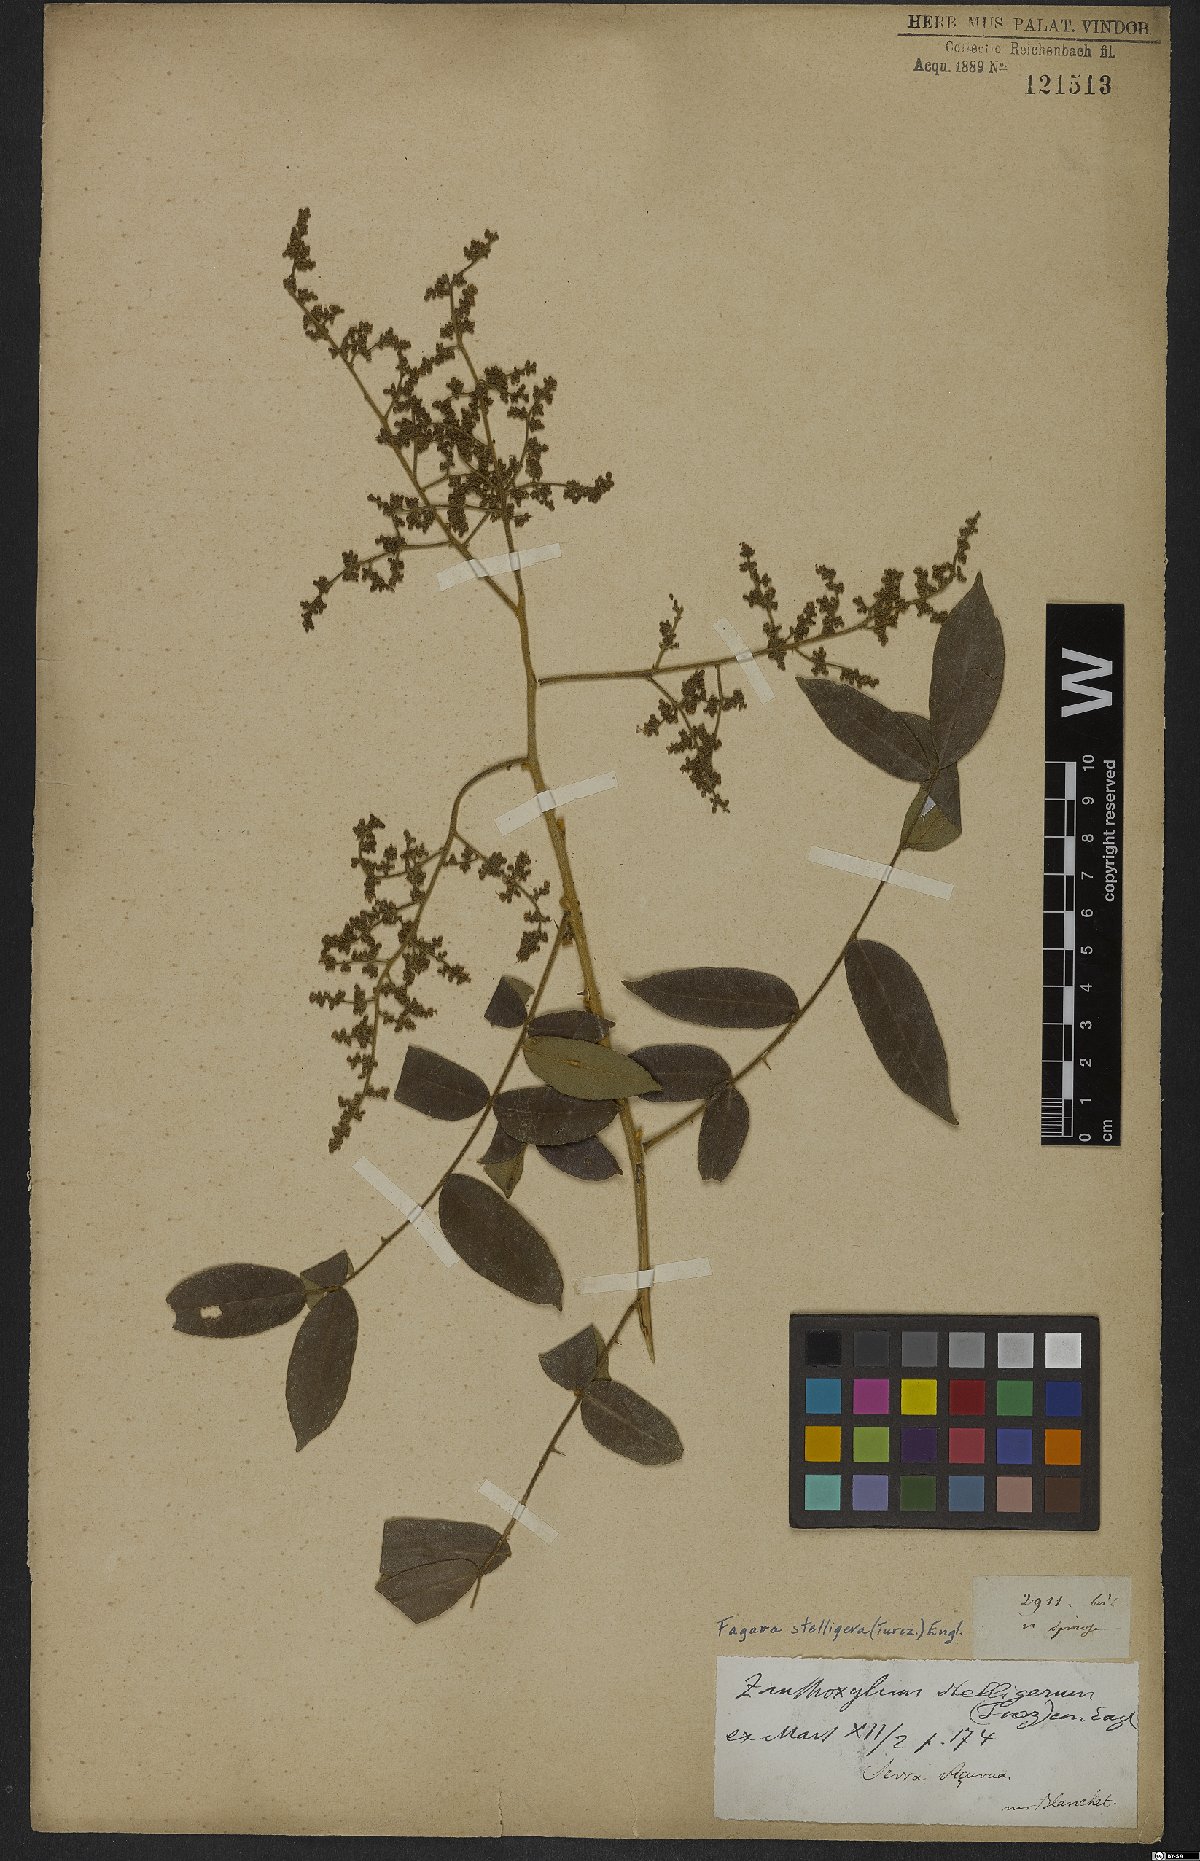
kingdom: Plantae
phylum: Tracheophyta
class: Magnoliopsida
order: Sapindales
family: Rutaceae
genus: Zanthoxylum
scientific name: Zanthoxylum stelligerum
